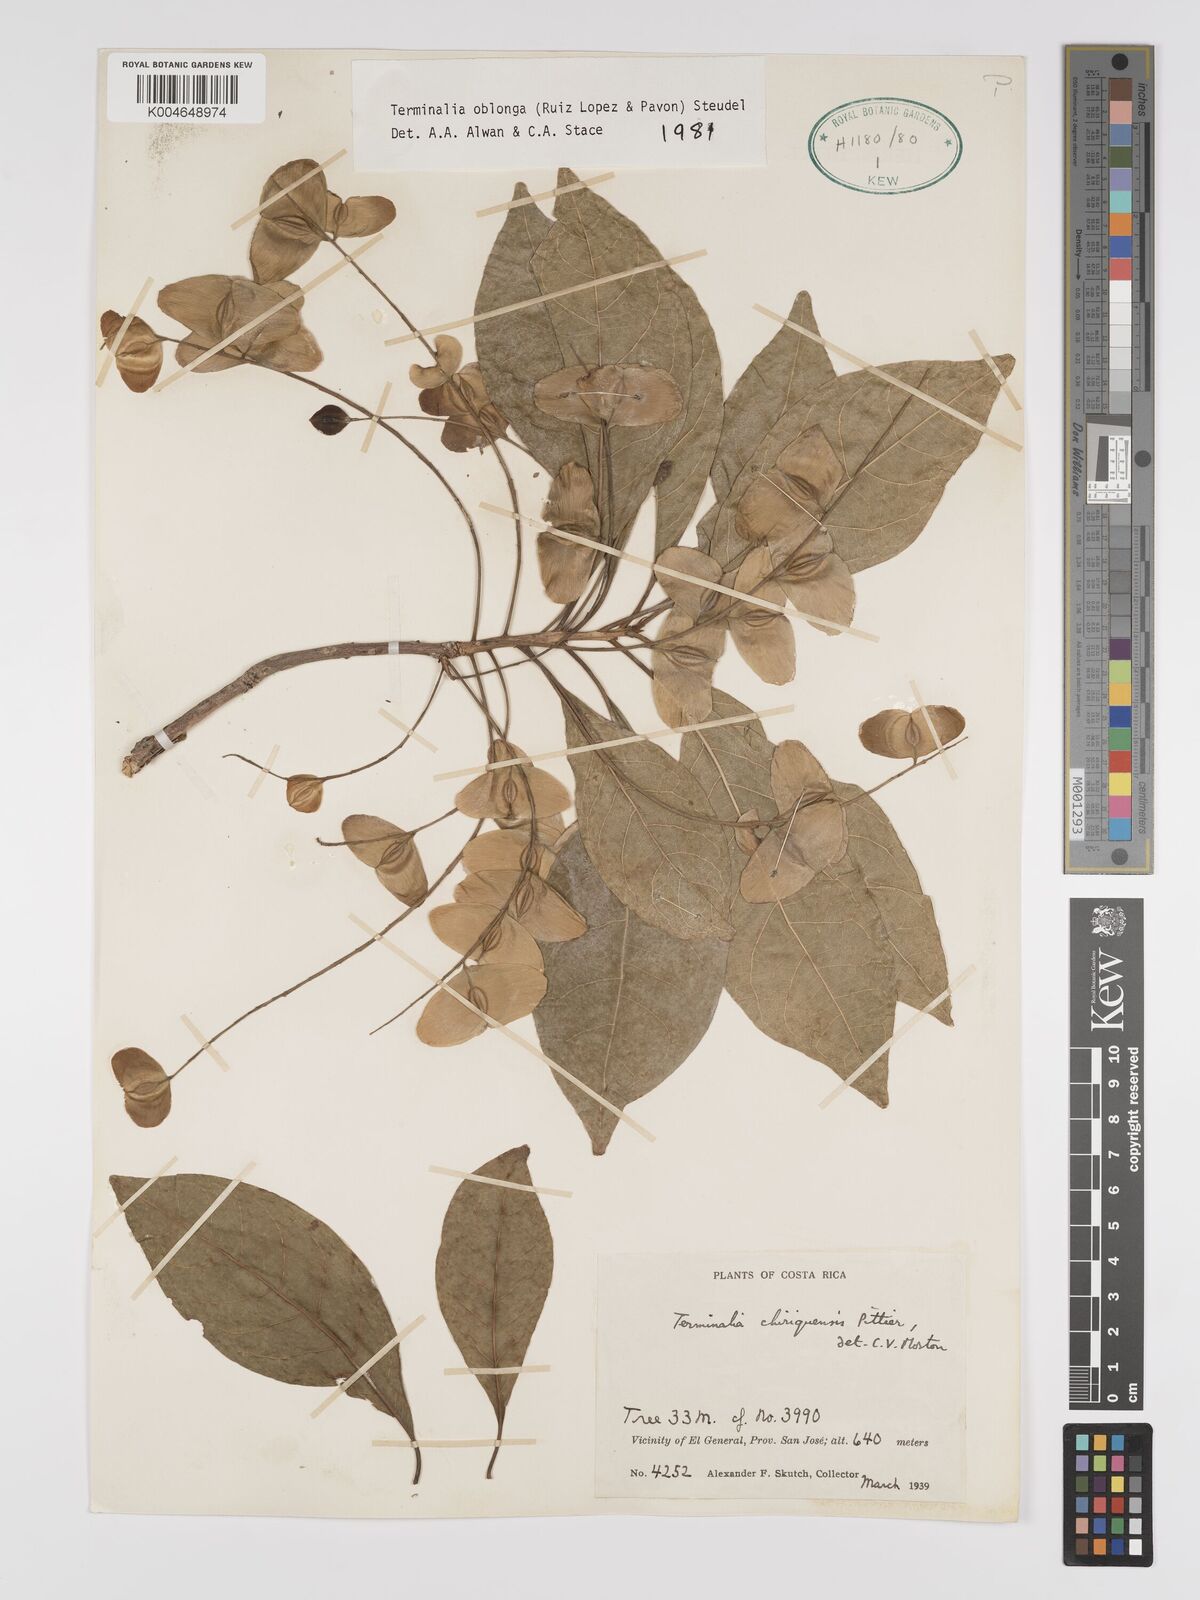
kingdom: Plantae
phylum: Tracheophyta
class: Magnoliopsida
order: Myrtales
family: Combretaceae
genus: Terminalia
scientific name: Terminalia oblonga
